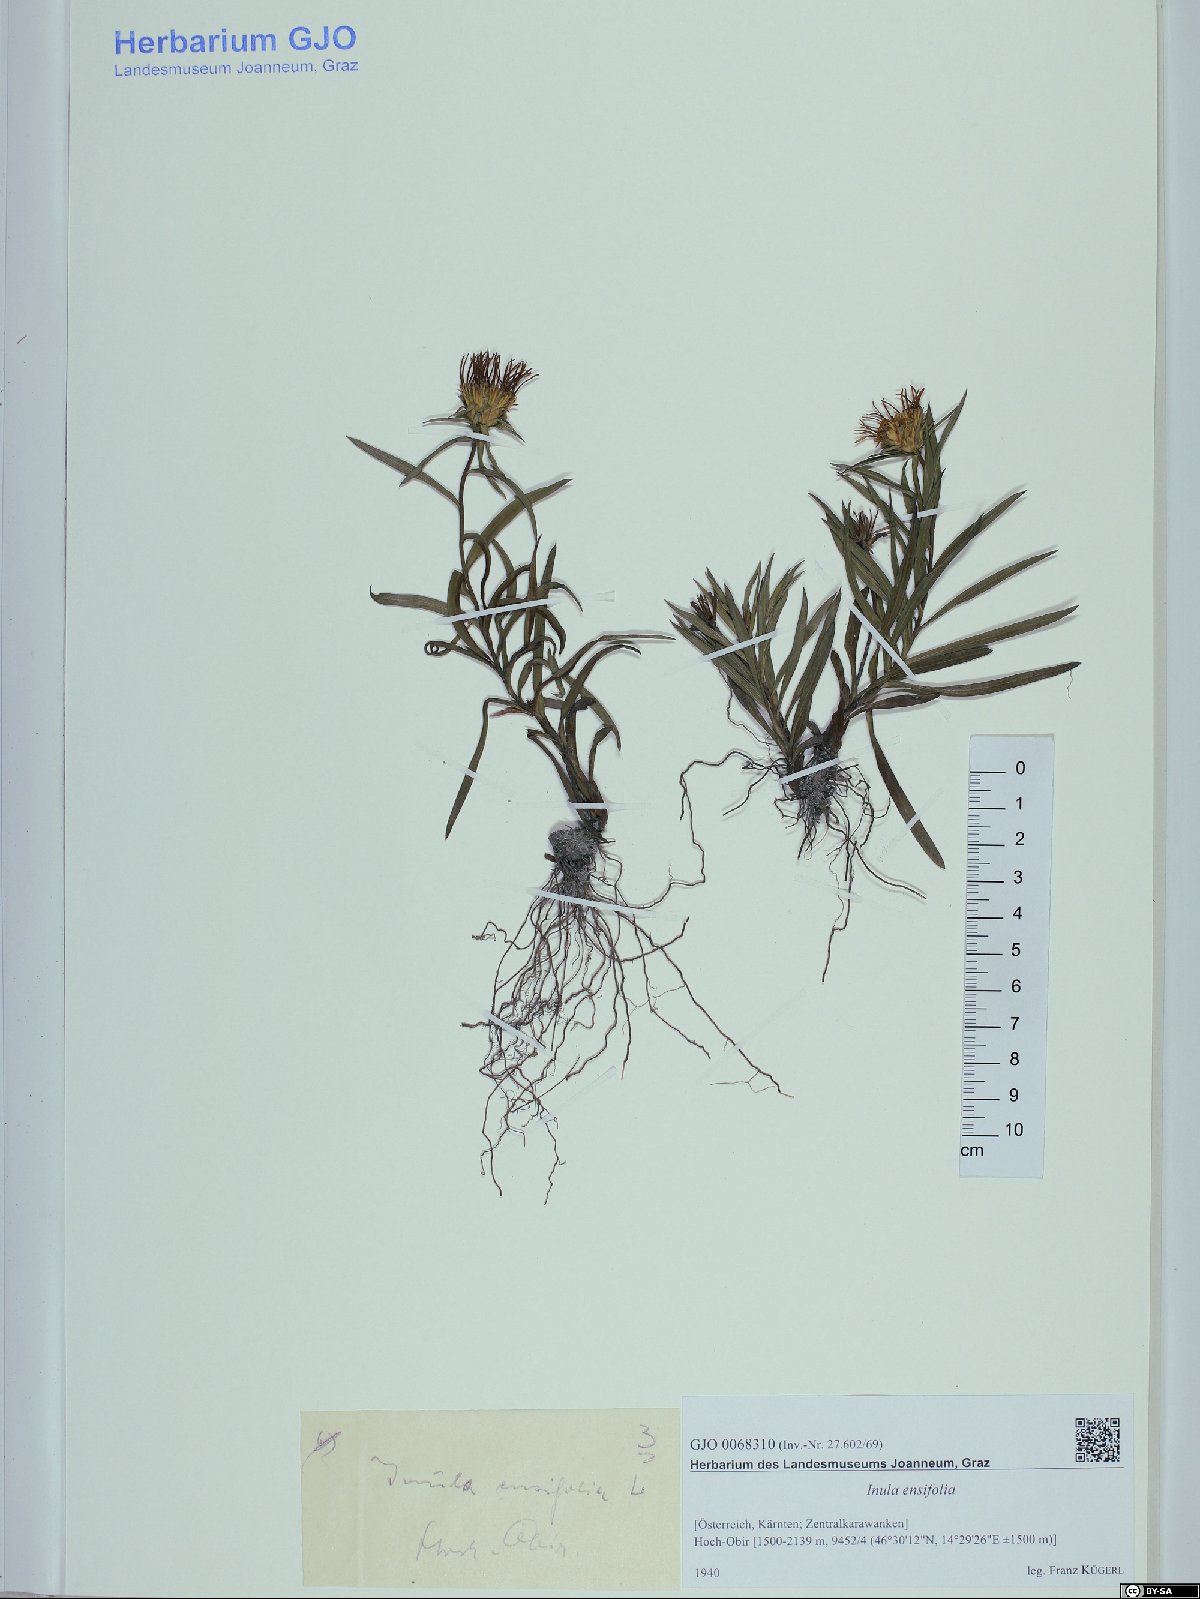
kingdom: Plantae
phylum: Tracheophyta
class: Magnoliopsida
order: Asterales
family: Asteraceae
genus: Pentanema
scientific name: Pentanema ensifolium
